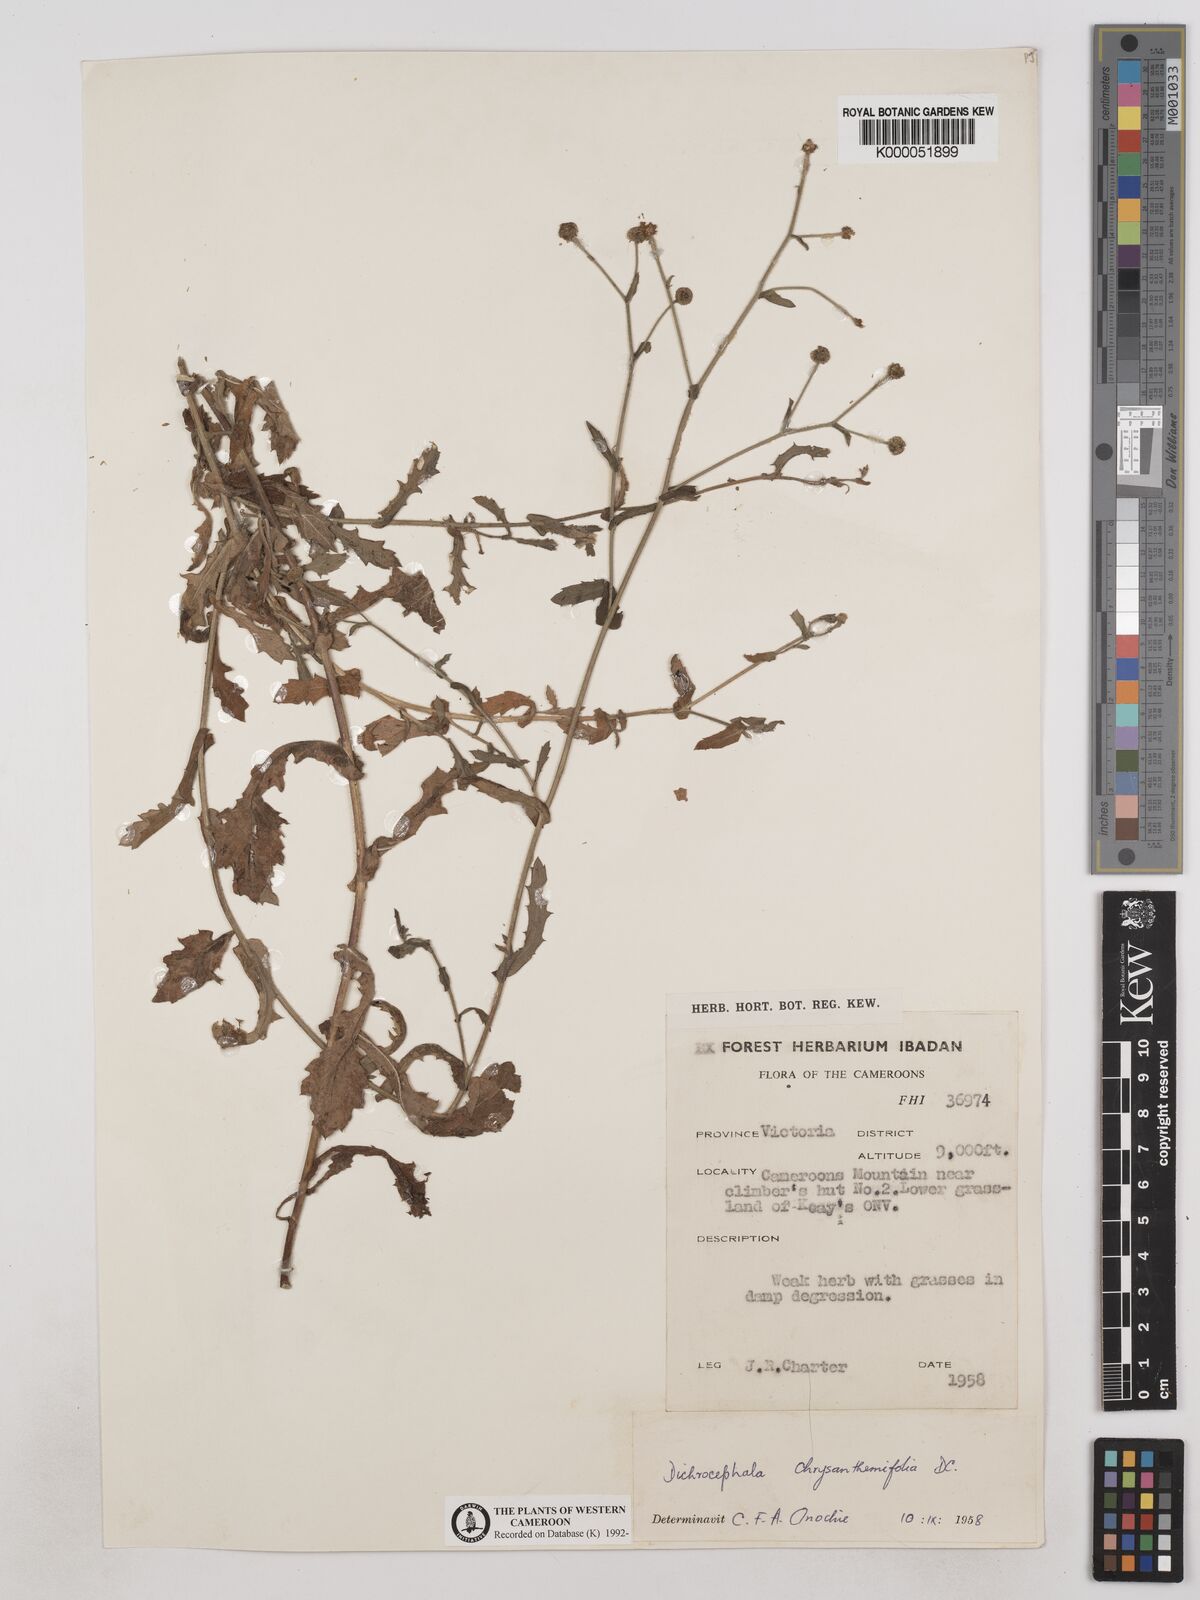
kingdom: Plantae
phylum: Tracheophyta
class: Magnoliopsida
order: Asterales
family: Asteraceae
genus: Dichrocephala
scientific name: Dichrocephala chrysanthemifolia
